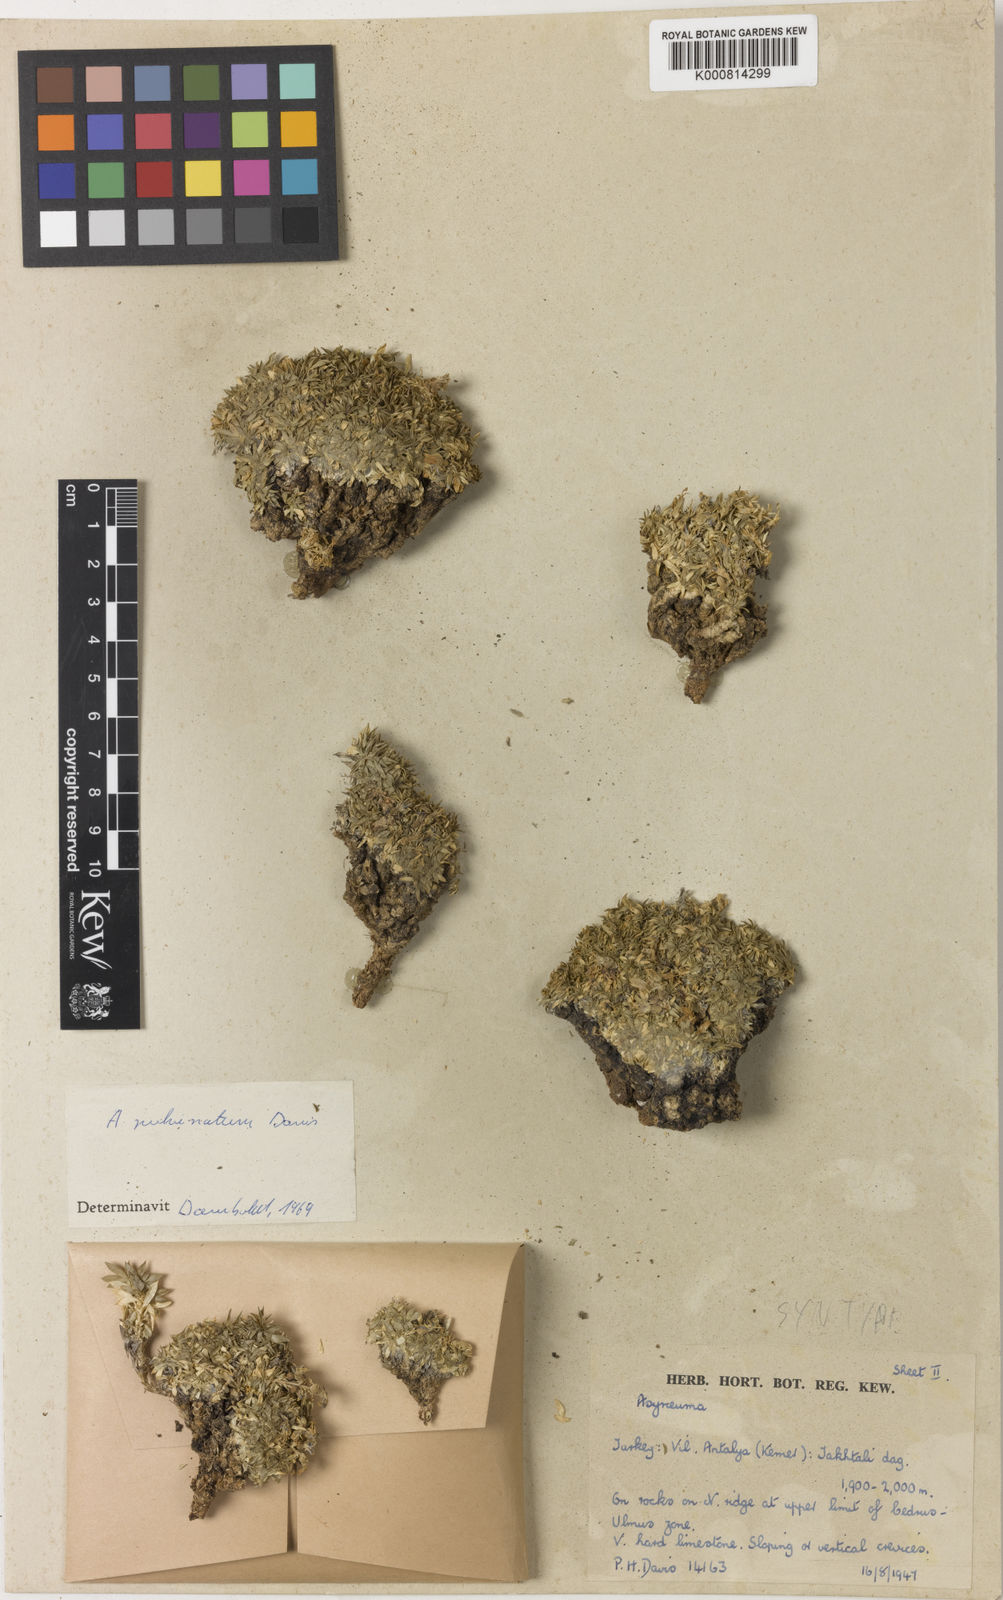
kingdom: Plantae
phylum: Tracheophyta
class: Magnoliopsida
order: Asterales
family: Campanulaceae
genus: Asyneuma
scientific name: Asyneuma pulvinatum
